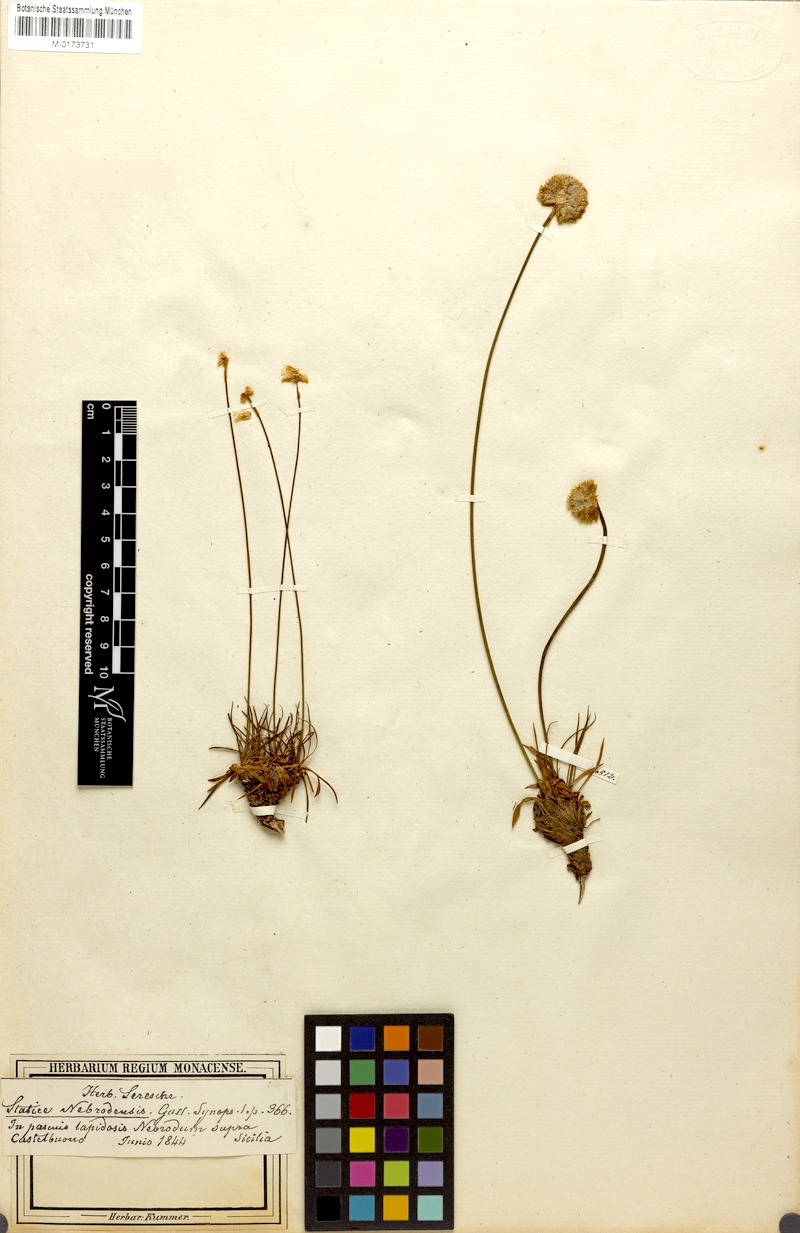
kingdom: Plantae
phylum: Tracheophyta
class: Magnoliopsida
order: Caryophyllales
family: Plumbaginaceae
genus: Armeria
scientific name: Armeria nebrodensis
